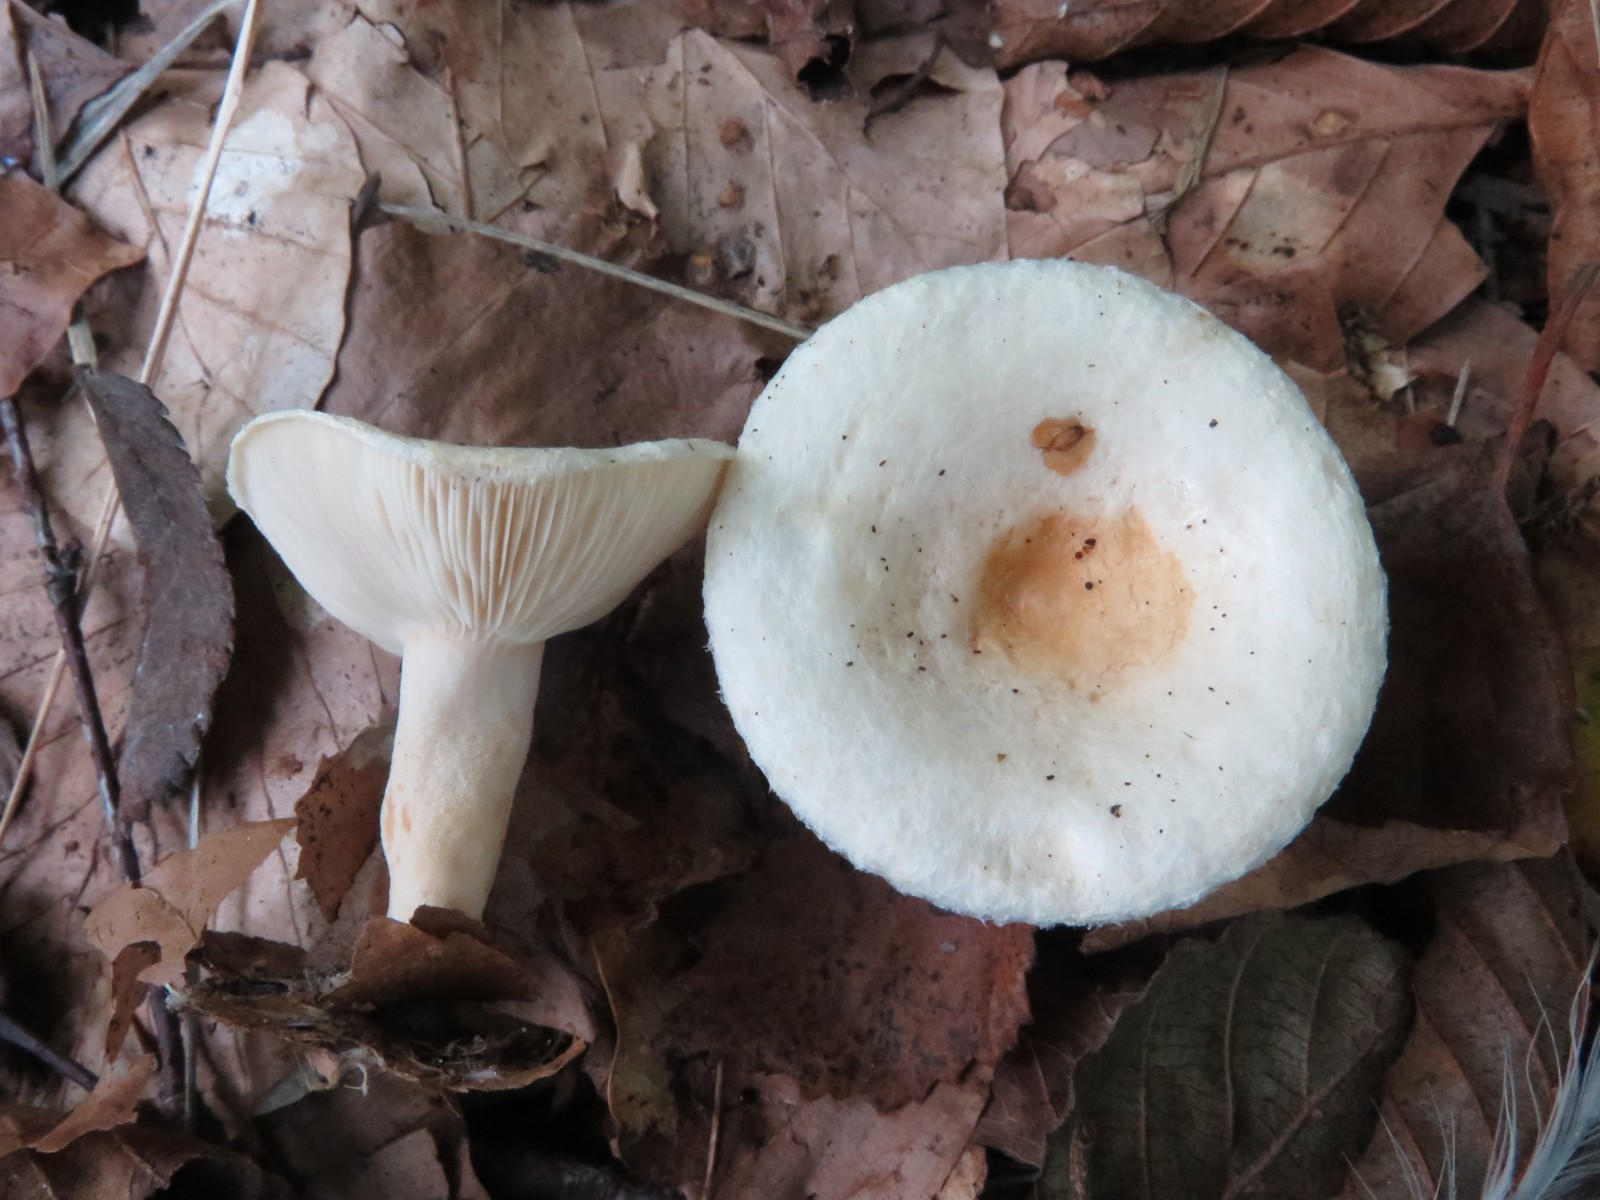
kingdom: Fungi
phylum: Basidiomycota
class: Agaricomycetes
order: Russulales
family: Russulaceae
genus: Lactarius
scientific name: Lactarius scoticus
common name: tørve-mælkehat
